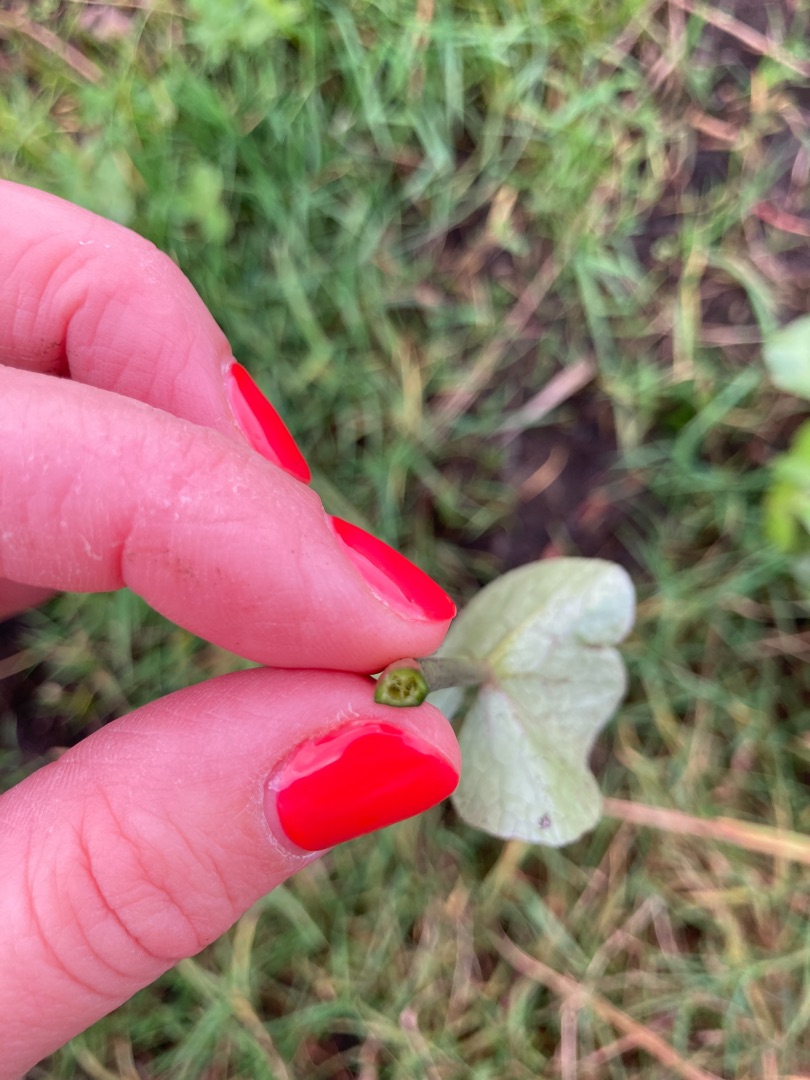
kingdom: Plantae
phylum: Tracheophyta
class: Magnoliopsida
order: Ranunculales
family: Ranunculaceae
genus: Caltha
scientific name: Caltha palustris
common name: Eng-kabbeleje
